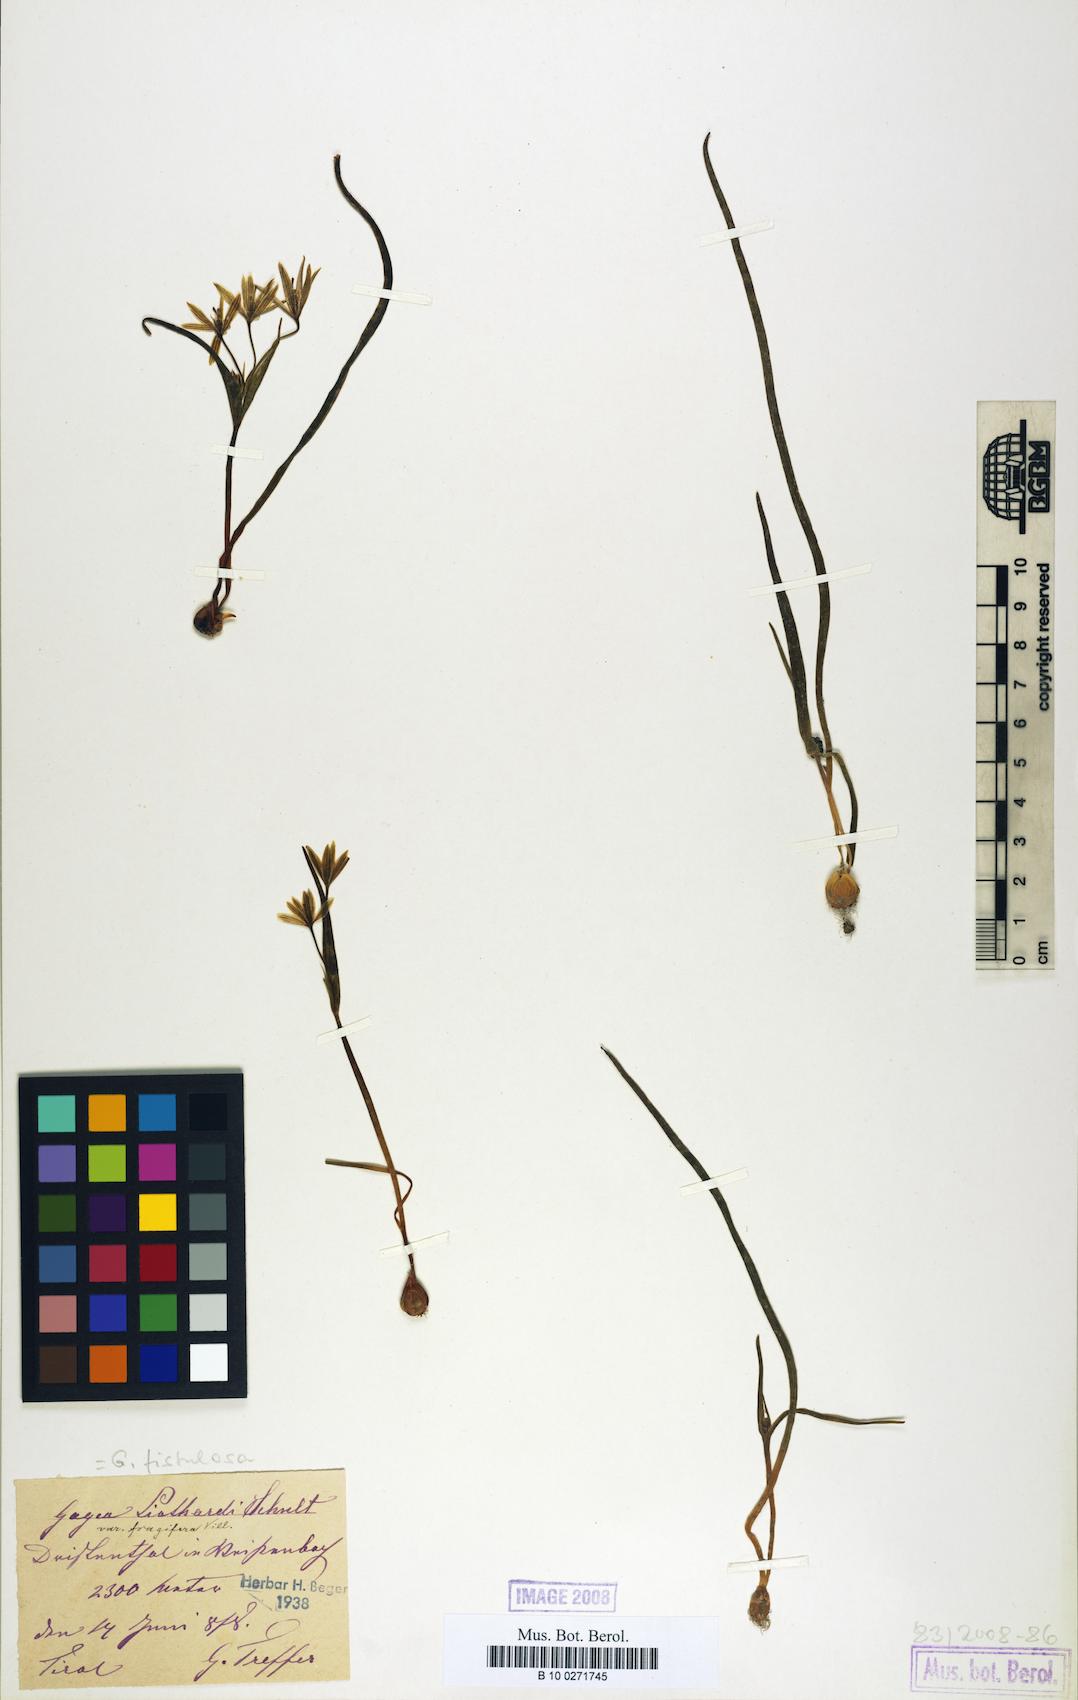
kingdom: Plantae
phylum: Tracheophyta
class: Liliopsida
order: Liliales
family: Liliaceae
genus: Gagea
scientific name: Gagea bohemica
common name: Early star-of-bethlehem
